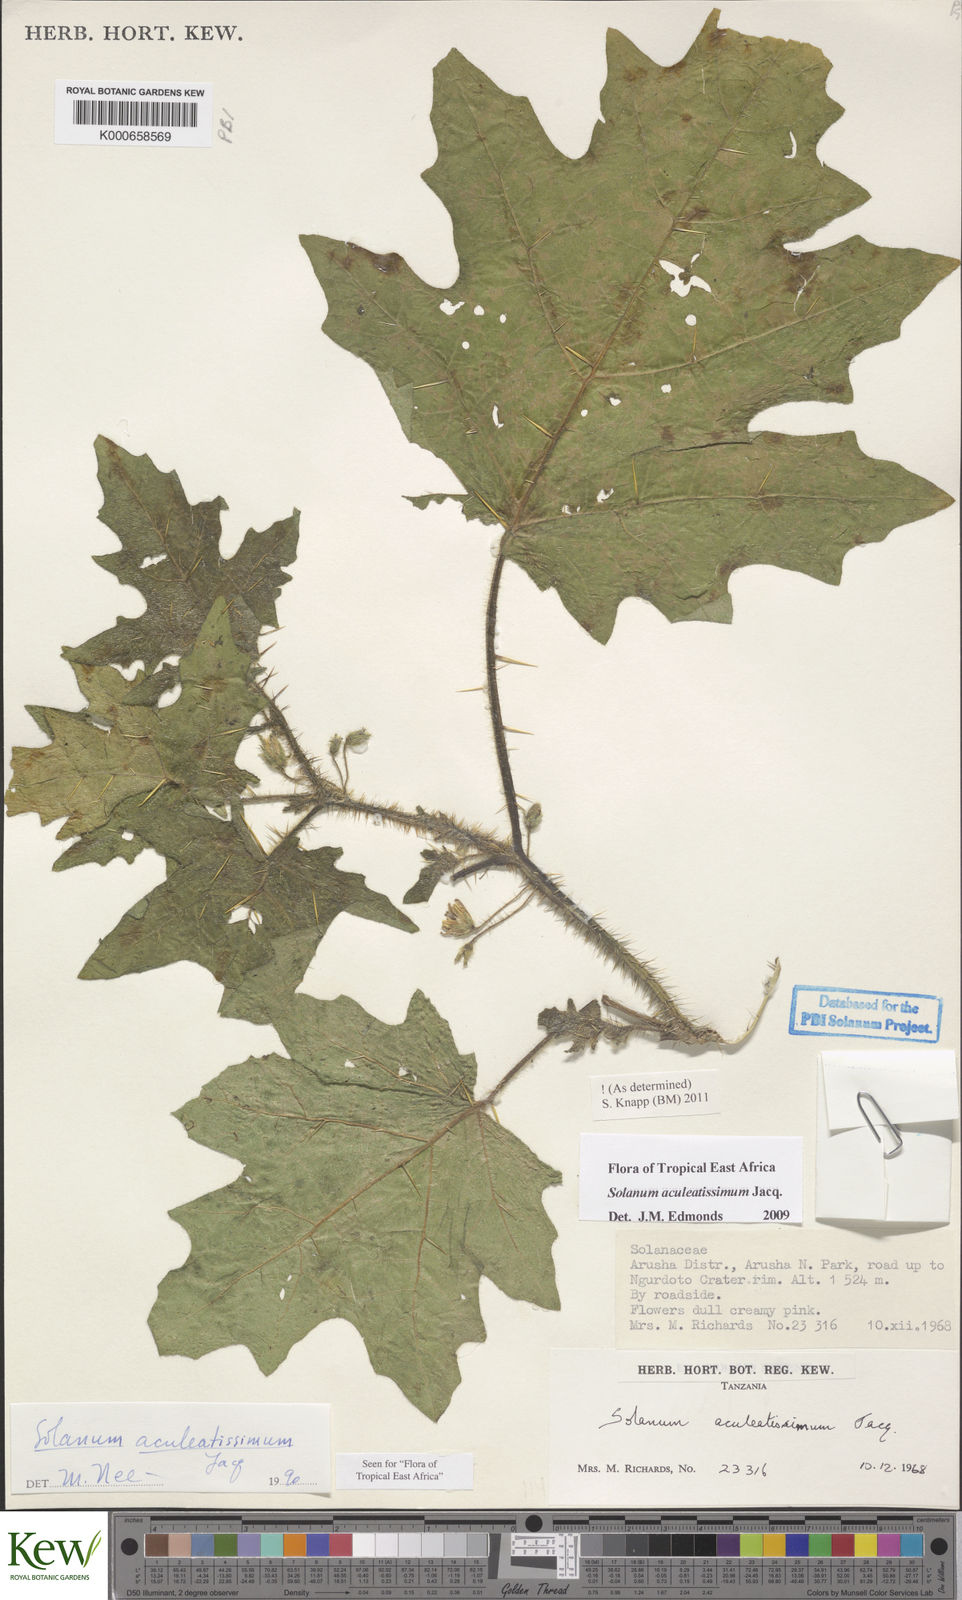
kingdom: Plantae
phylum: Tracheophyta
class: Magnoliopsida
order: Solanales
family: Solanaceae
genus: Solanum
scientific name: Solanum aculeatissimum
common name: Dutch eggplant
